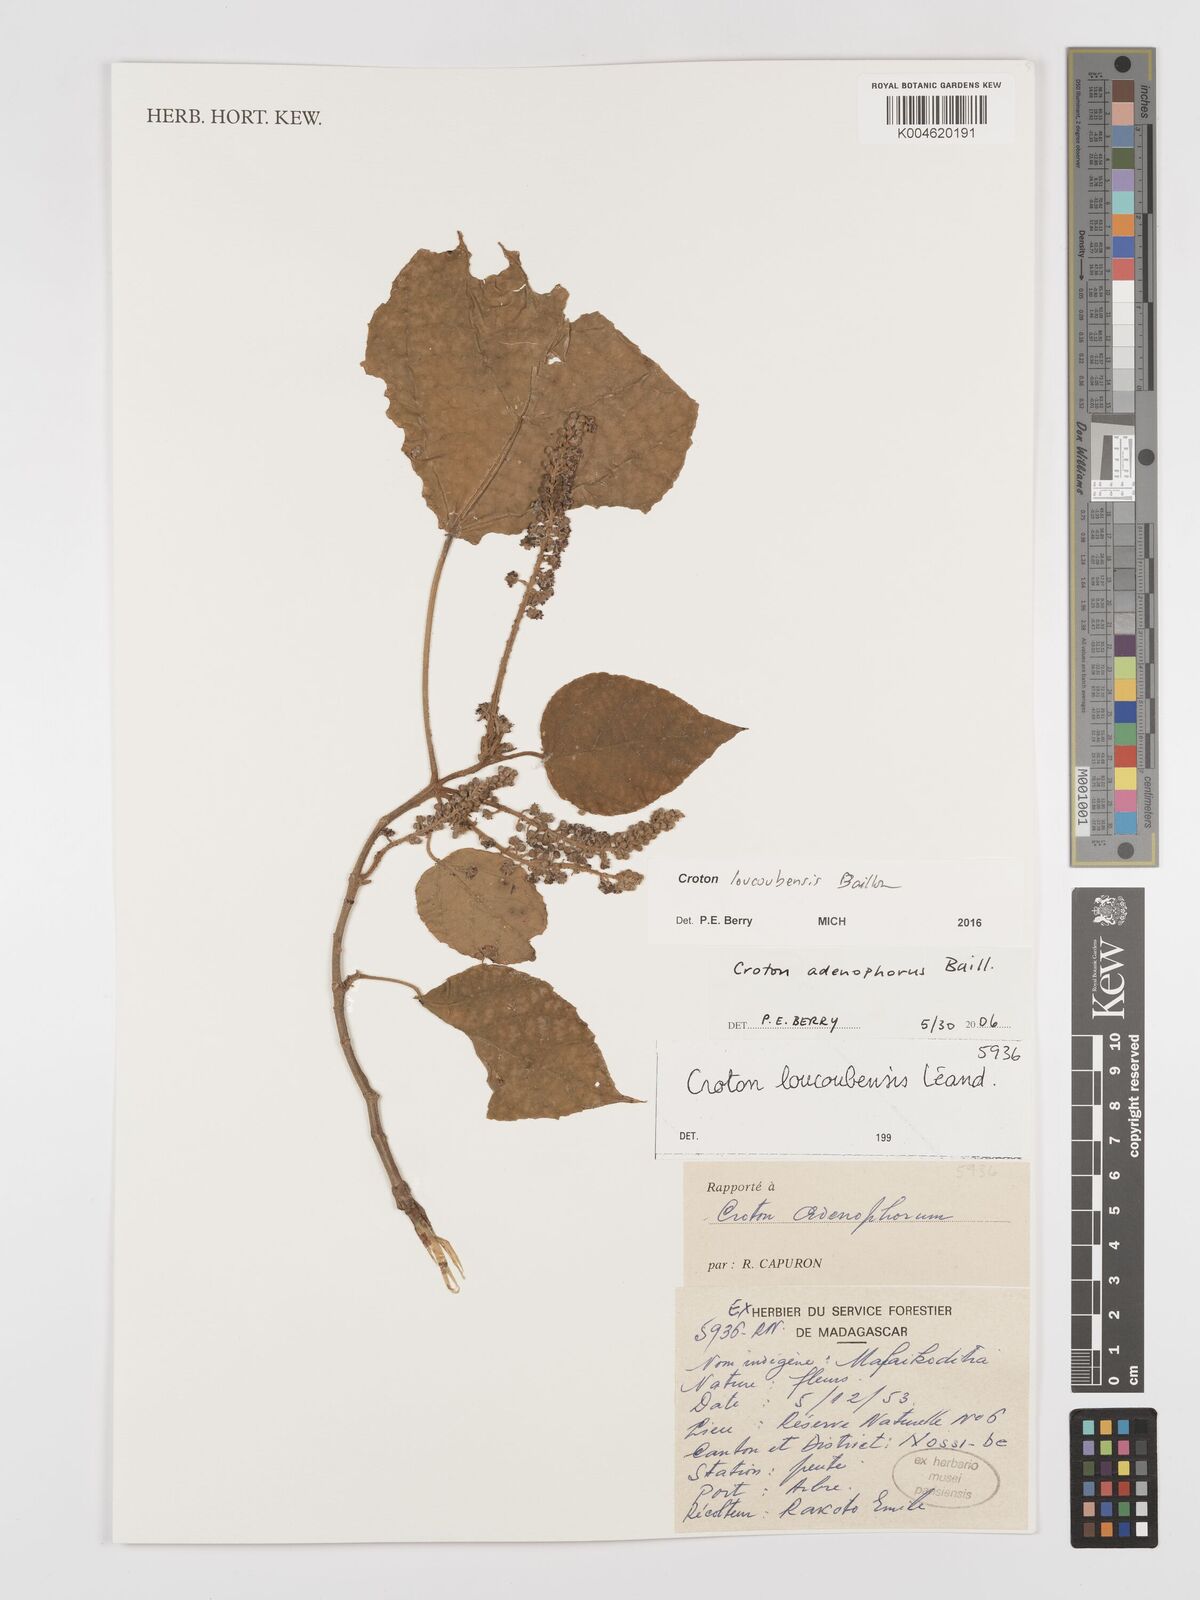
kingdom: Plantae
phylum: Tracheophyta
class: Magnoliopsida
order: Malpighiales
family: Euphorbiaceae
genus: Croton
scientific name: Croton loucoubensis
